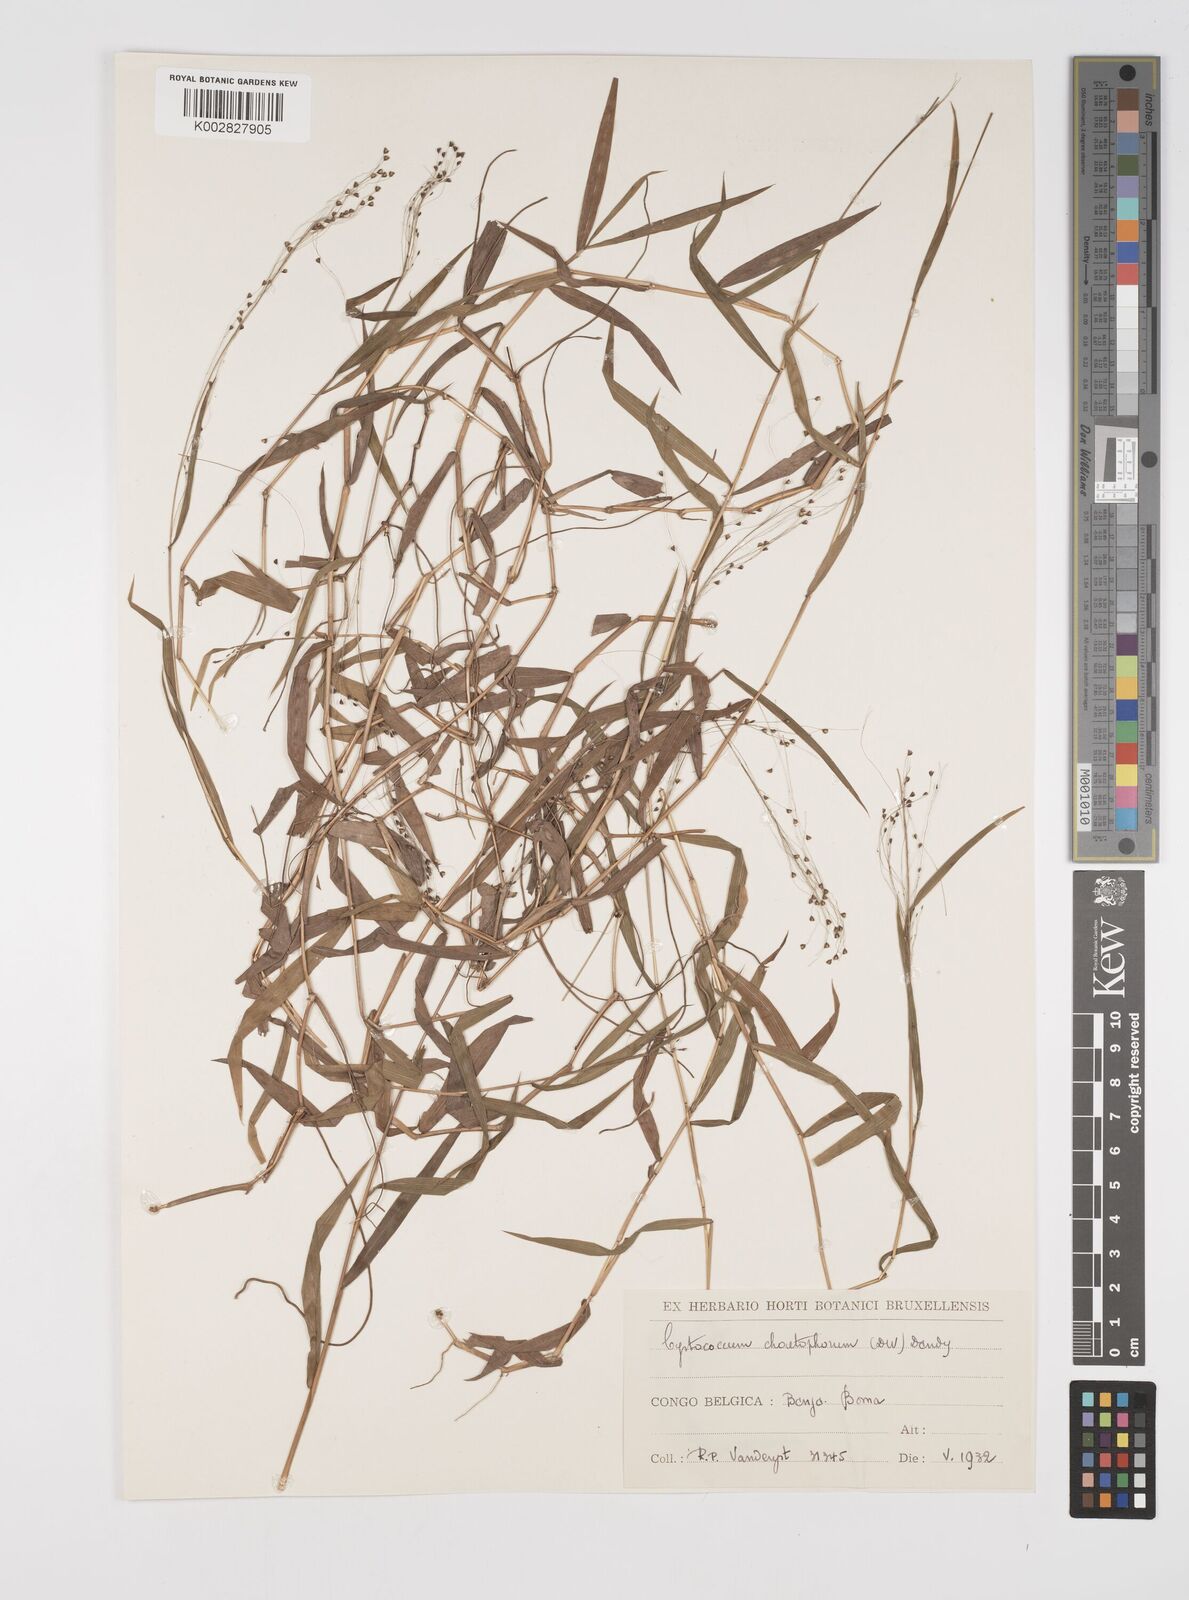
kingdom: Plantae
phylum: Tracheophyta
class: Liliopsida
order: Poales
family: Poaceae
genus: Cyrtococcum
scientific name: Cyrtococcum chaetophoron
